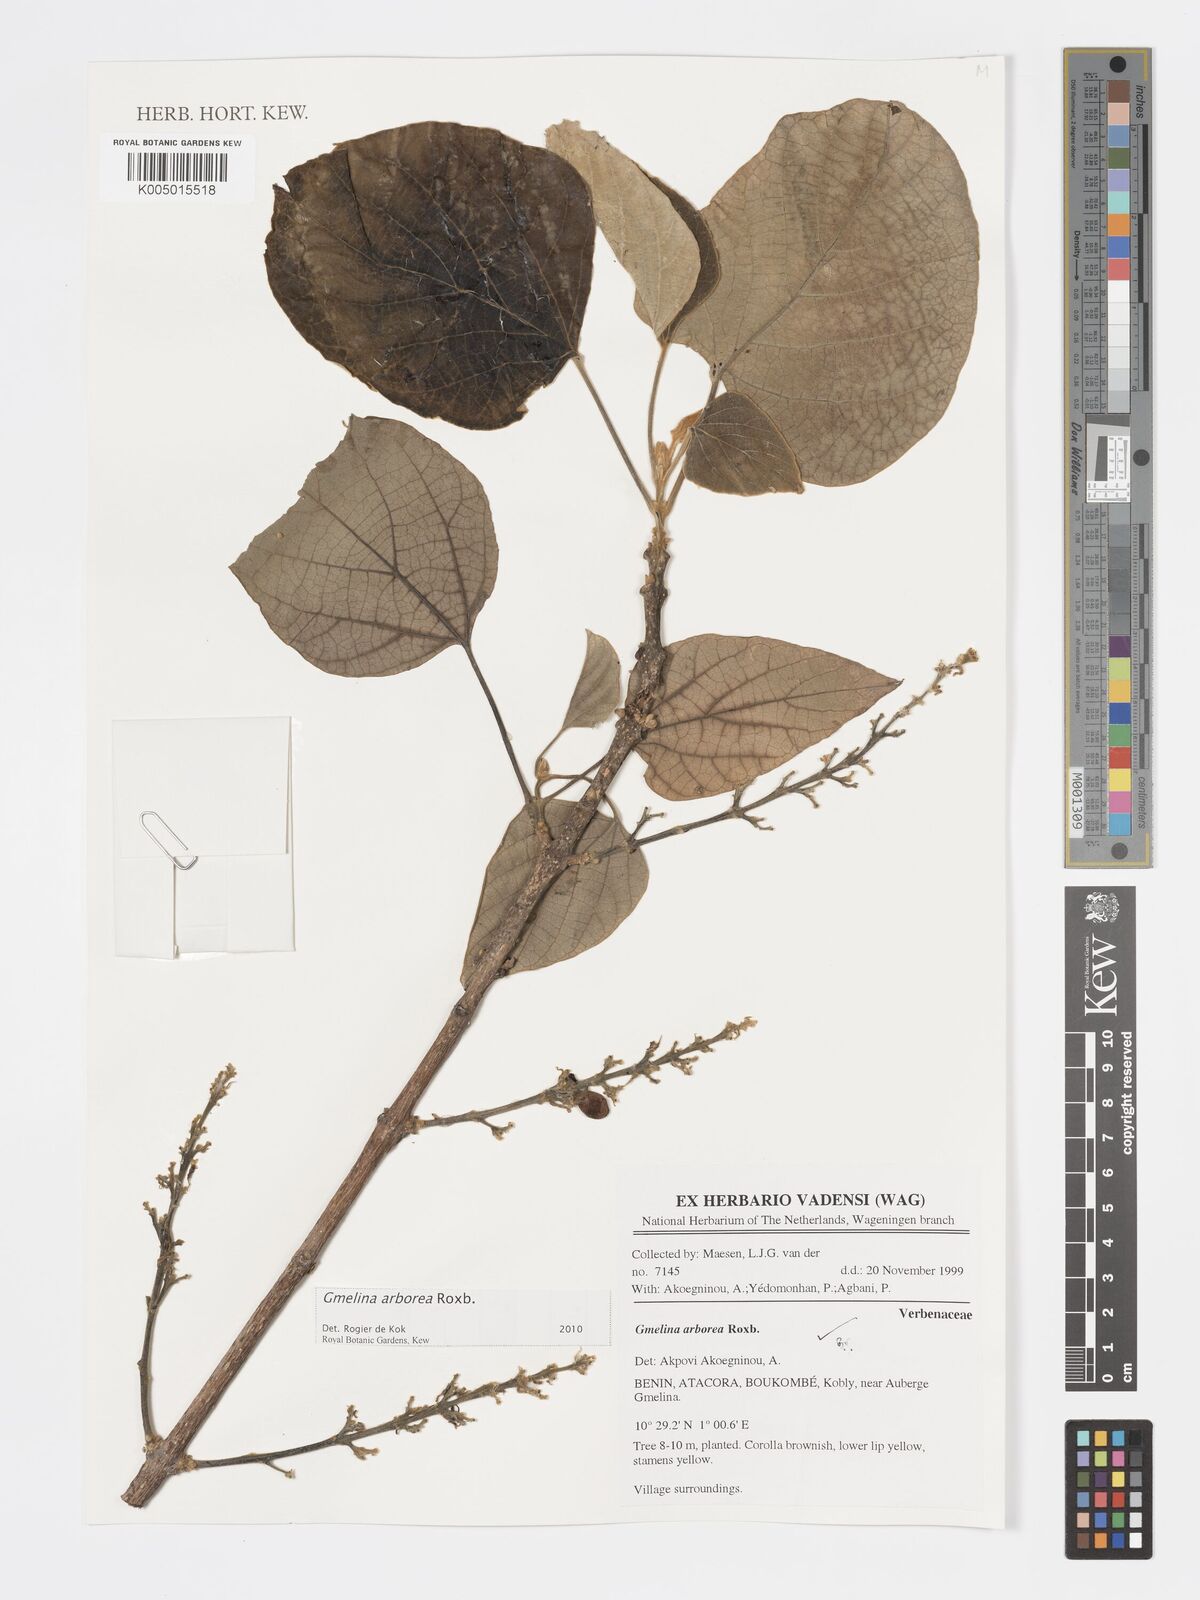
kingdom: Plantae
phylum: Tracheophyta
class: Magnoliopsida
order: Lamiales
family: Lamiaceae
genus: Gmelina
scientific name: Gmelina arborea
